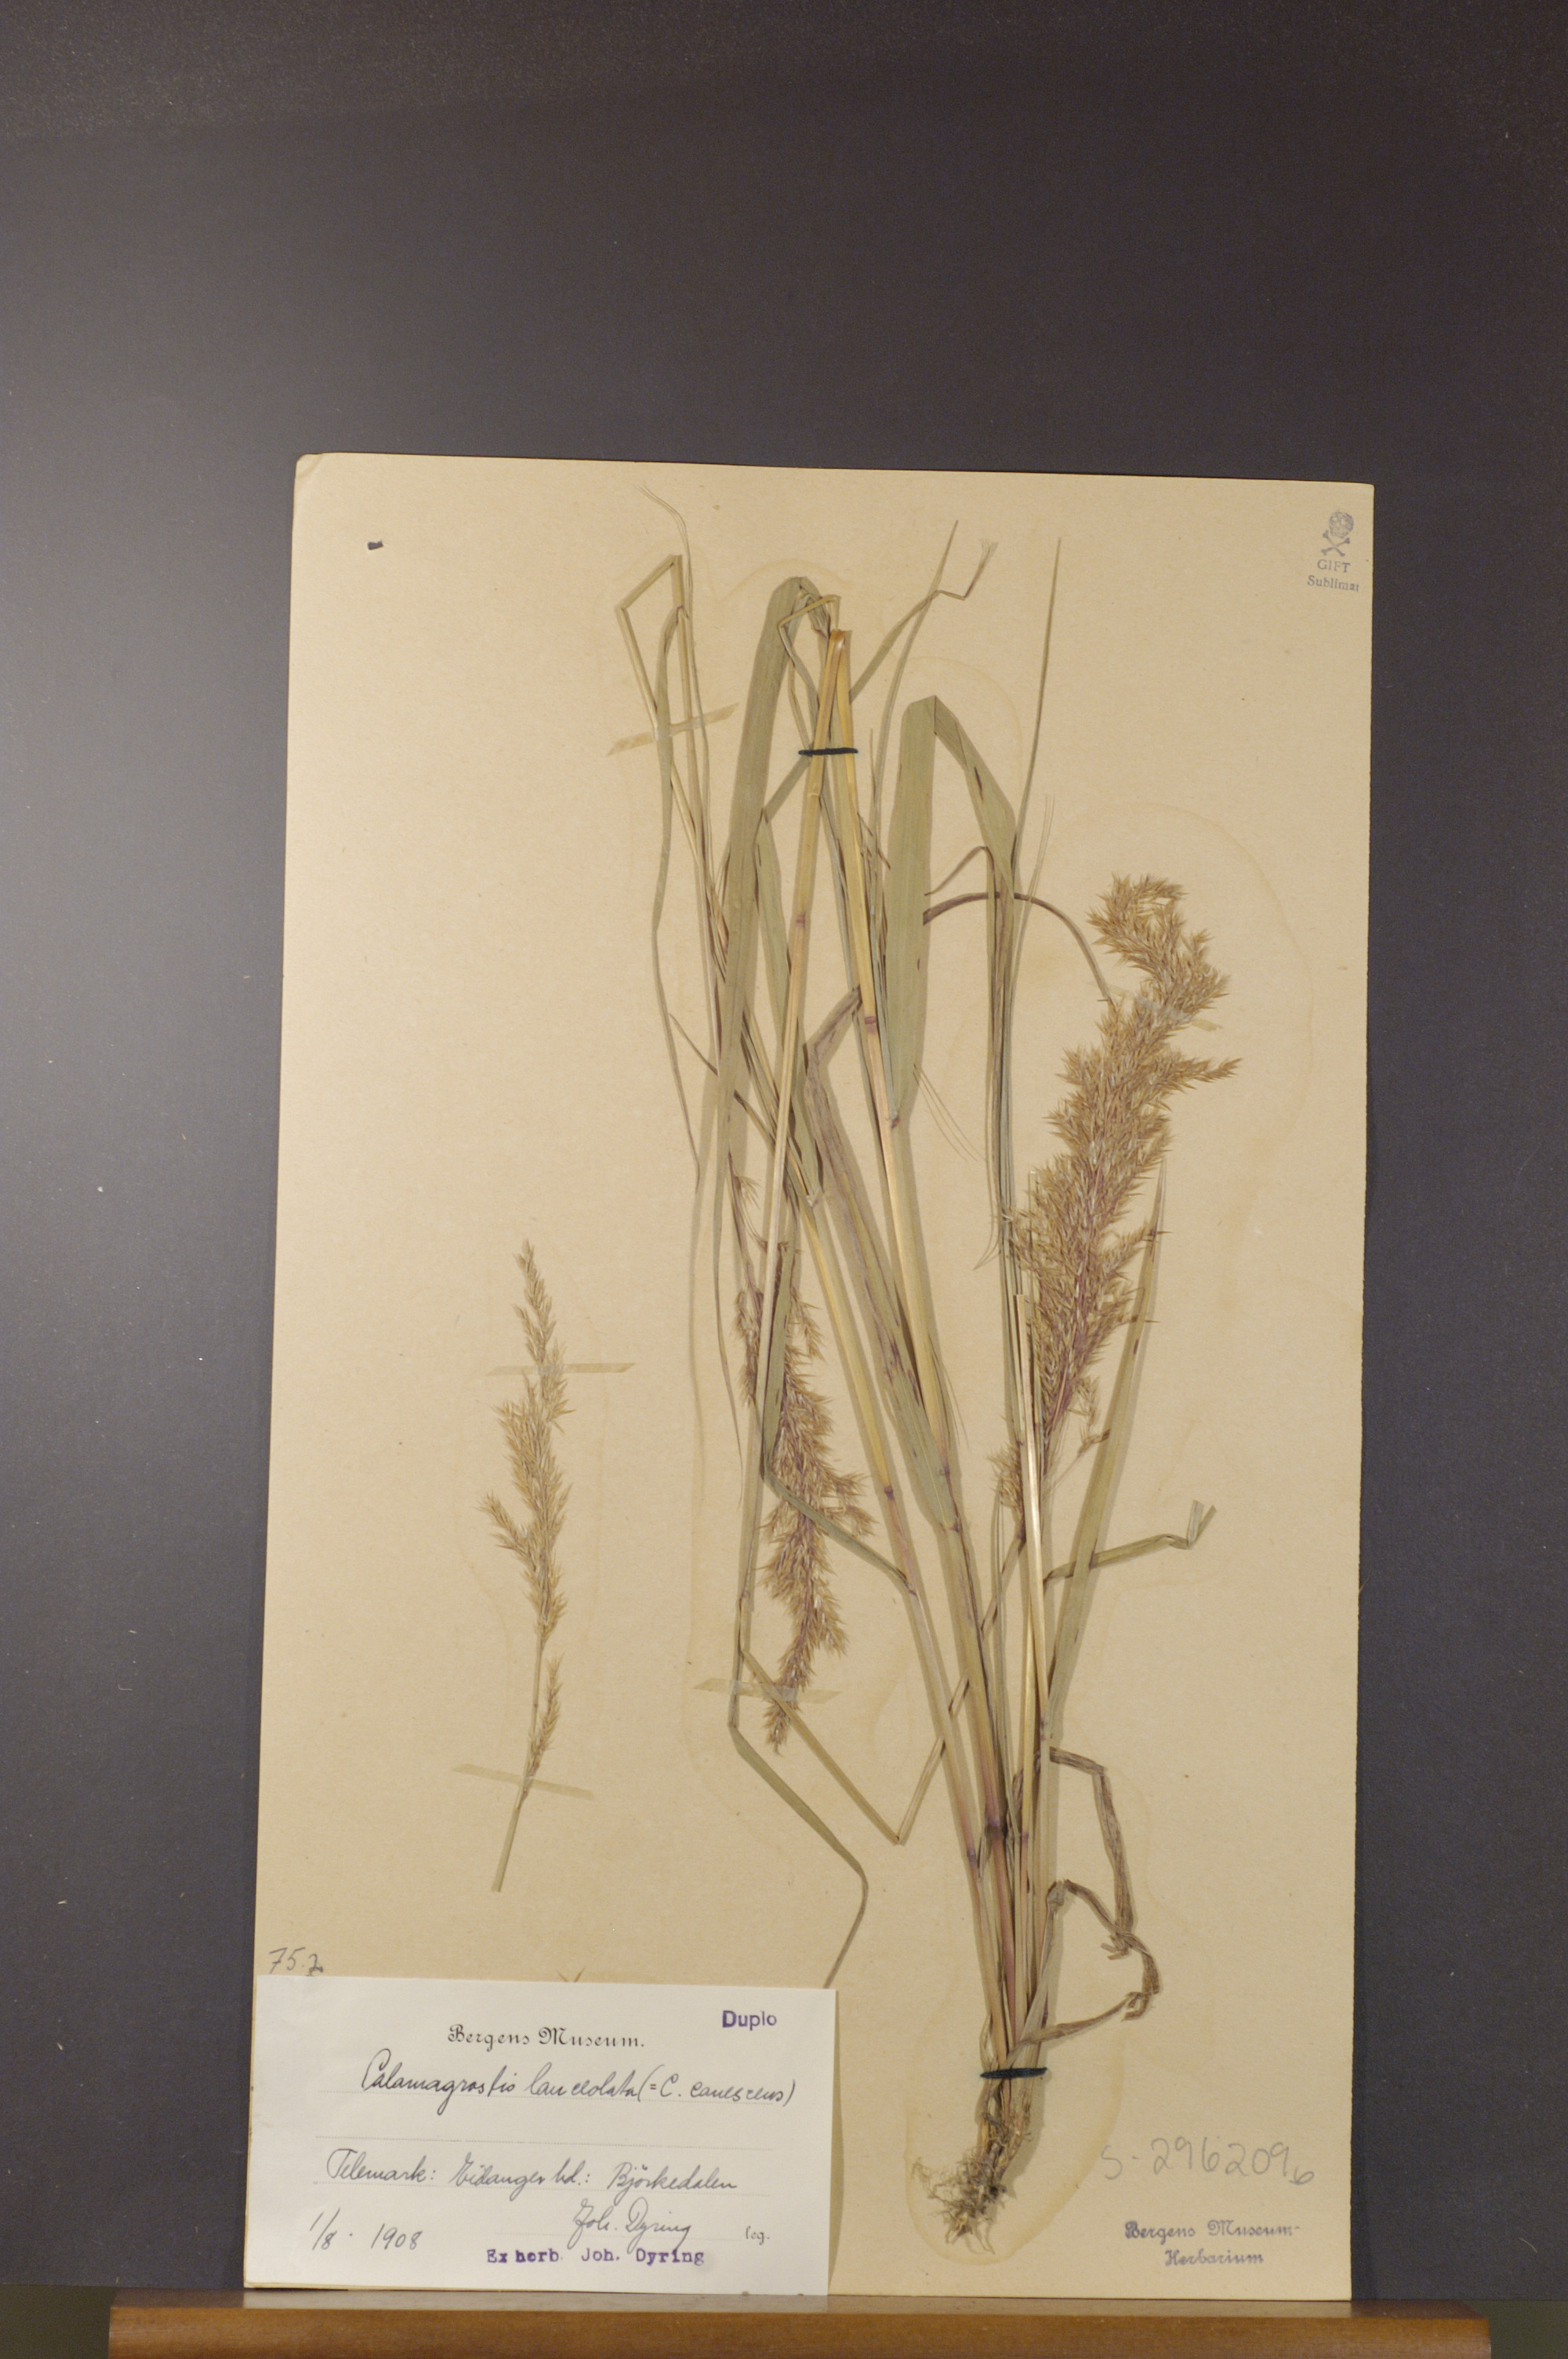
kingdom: Plantae
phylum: Tracheophyta
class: Liliopsida
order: Poales
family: Poaceae
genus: Calamagrostis
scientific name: Calamagrostis purpurea
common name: Scandinavian small-reed
